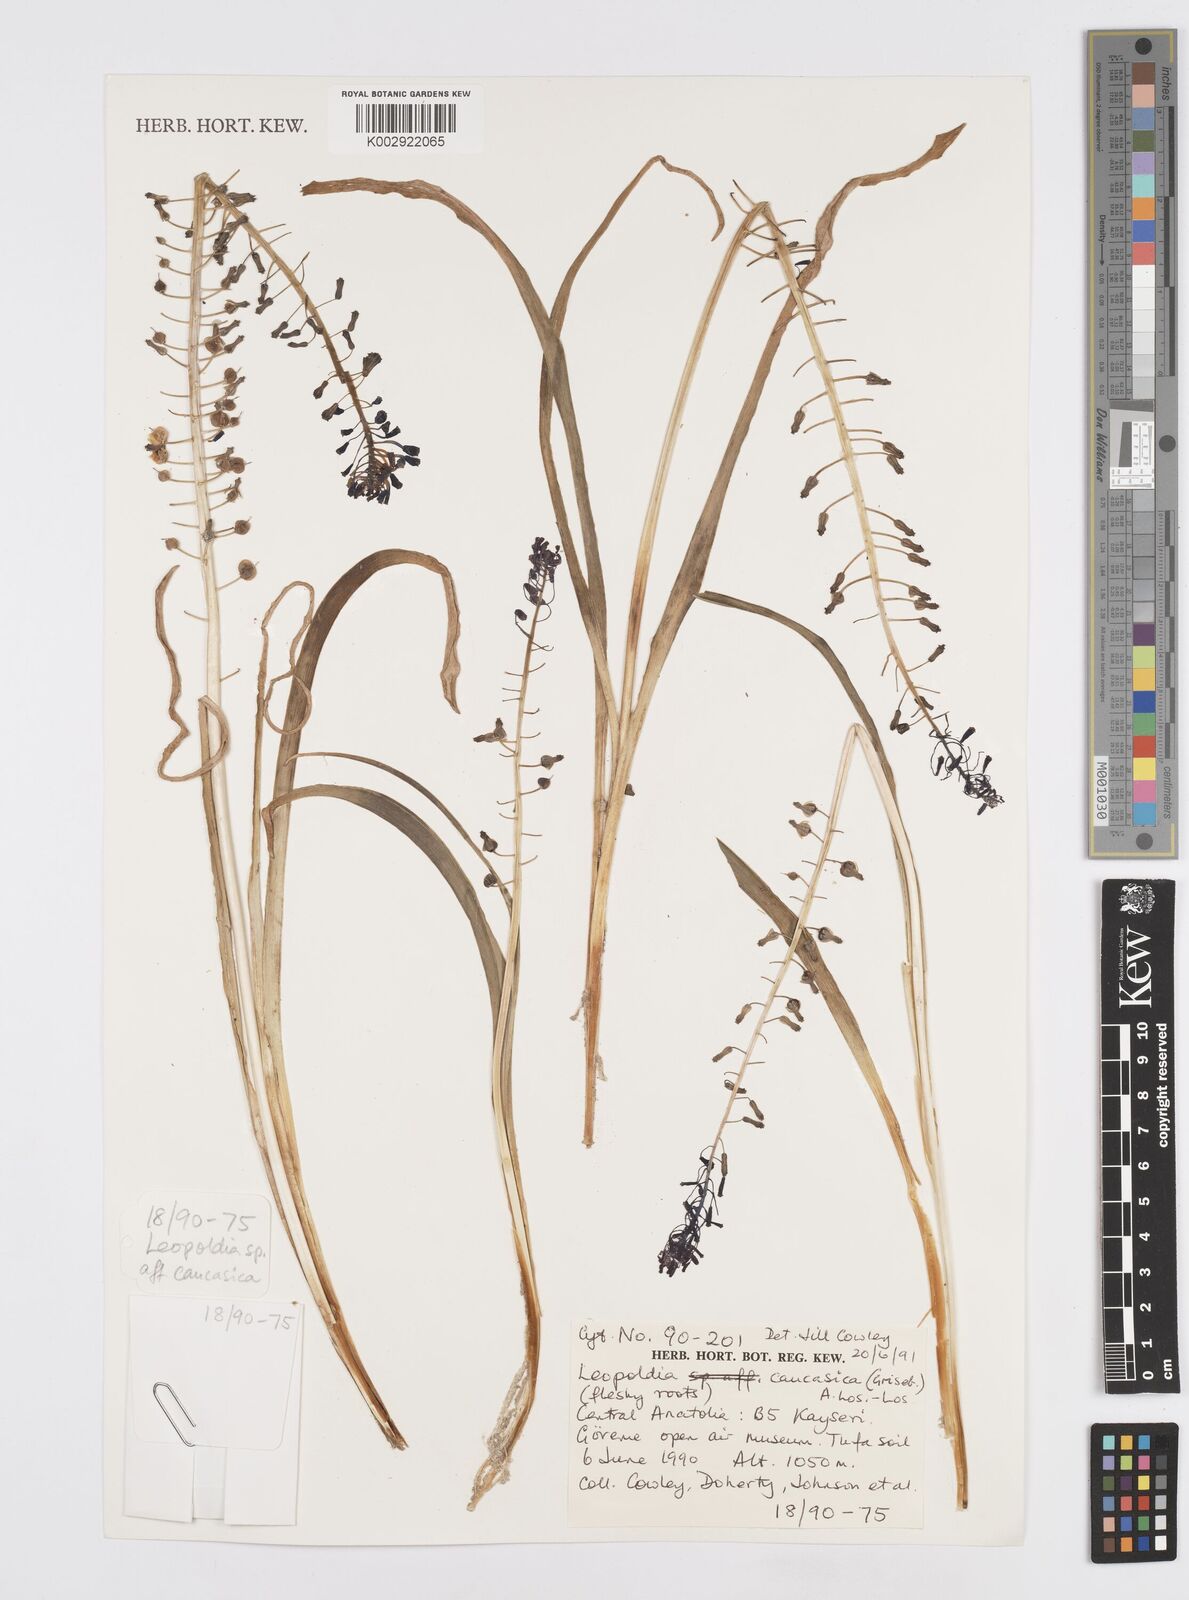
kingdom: Plantae
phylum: Tracheophyta
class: Liliopsida
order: Asparagales
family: Asparagaceae
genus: Muscari
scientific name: Muscari caucasicum
